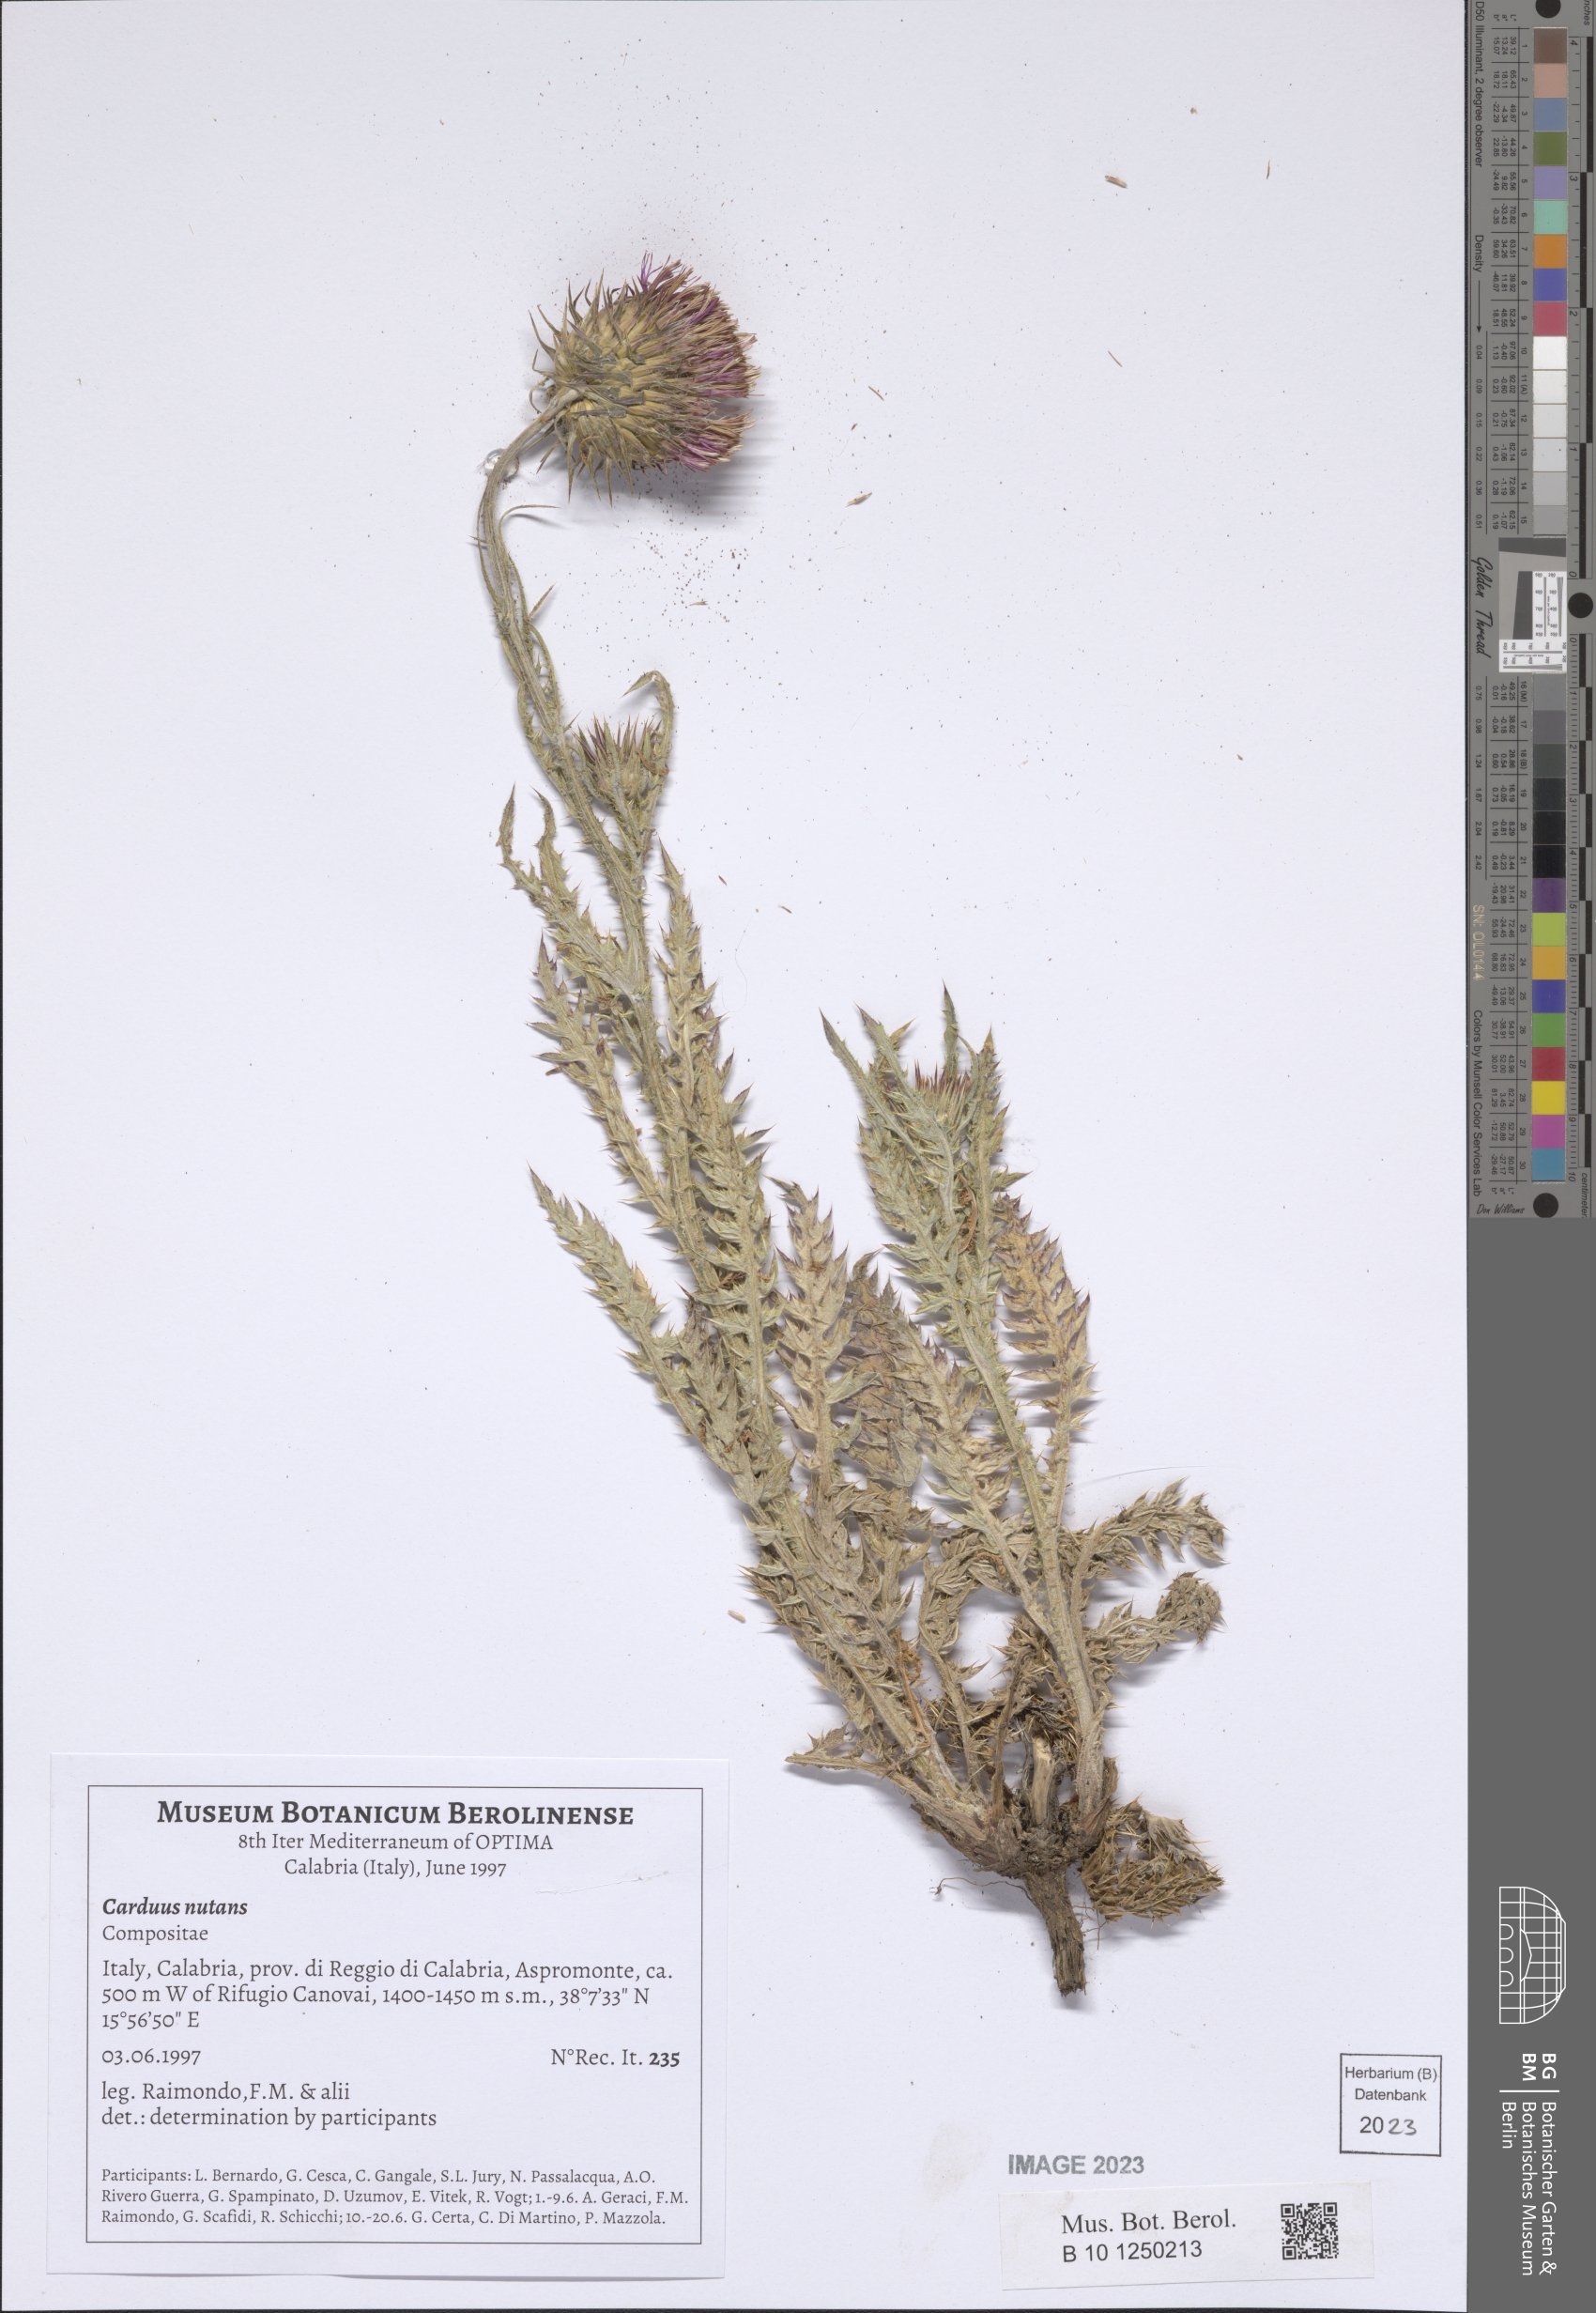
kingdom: Plantae
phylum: Tracheophyta
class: Magnoliopsida
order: Asterales
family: Asteraceae
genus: Carduus
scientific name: Carduus nutans
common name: Musk thistle
